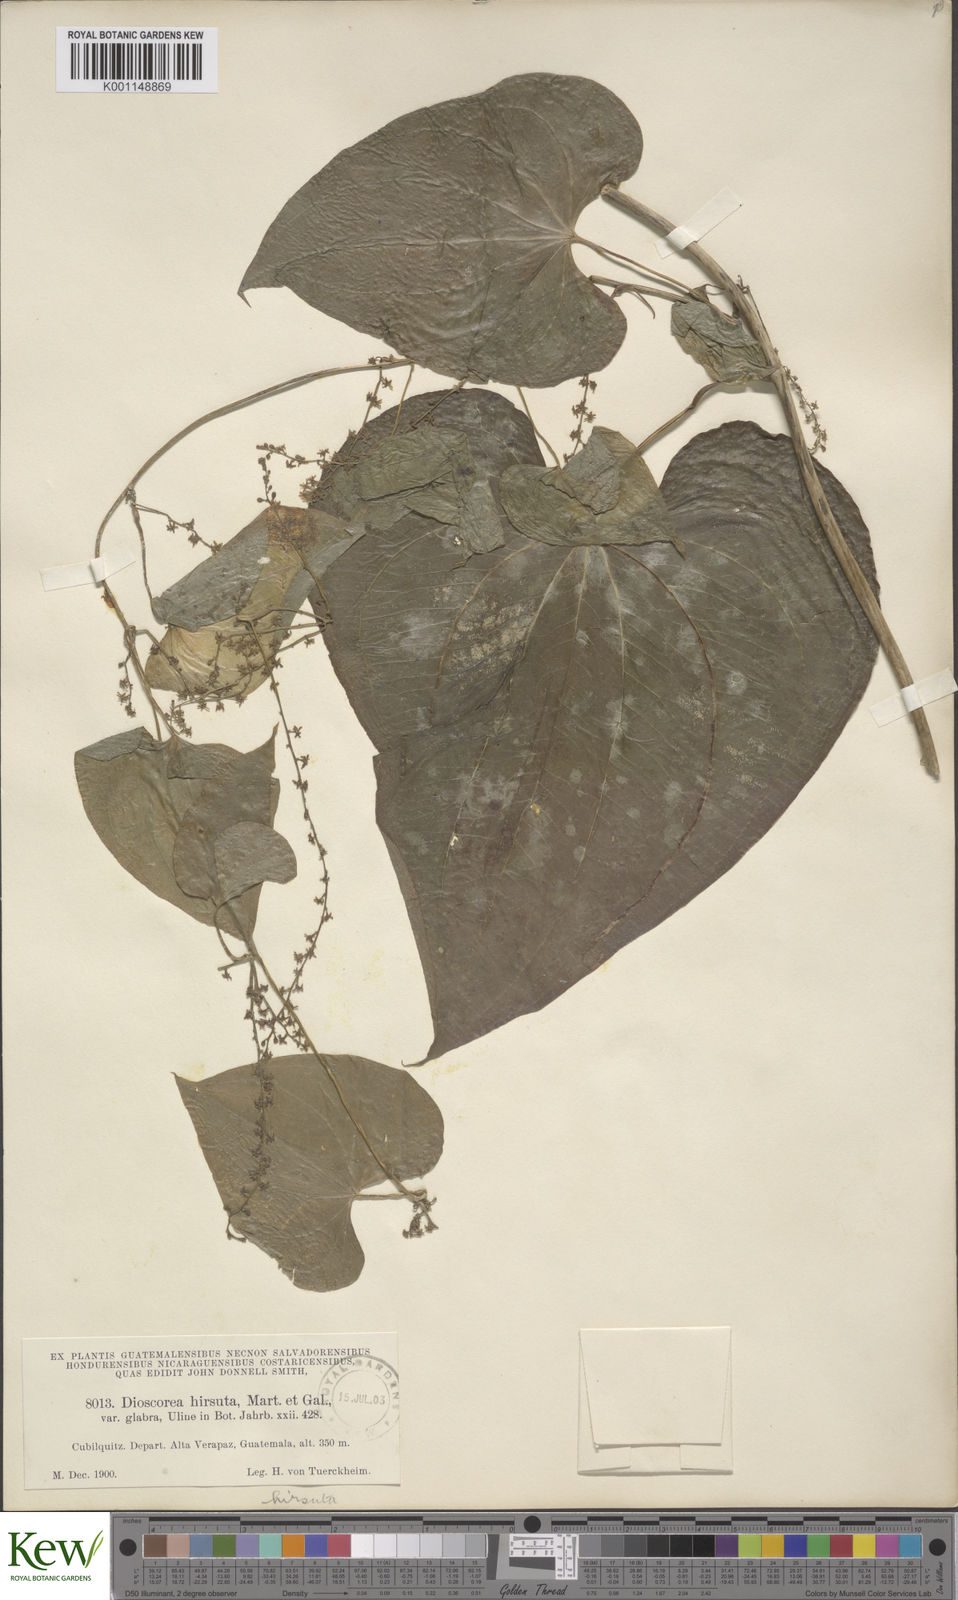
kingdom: Plantae
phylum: Tracheophyta
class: Liliopsida
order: Dioscoreales
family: Dioscoreaceae
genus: Dioscorea
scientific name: Dioscorea convolvulacea
